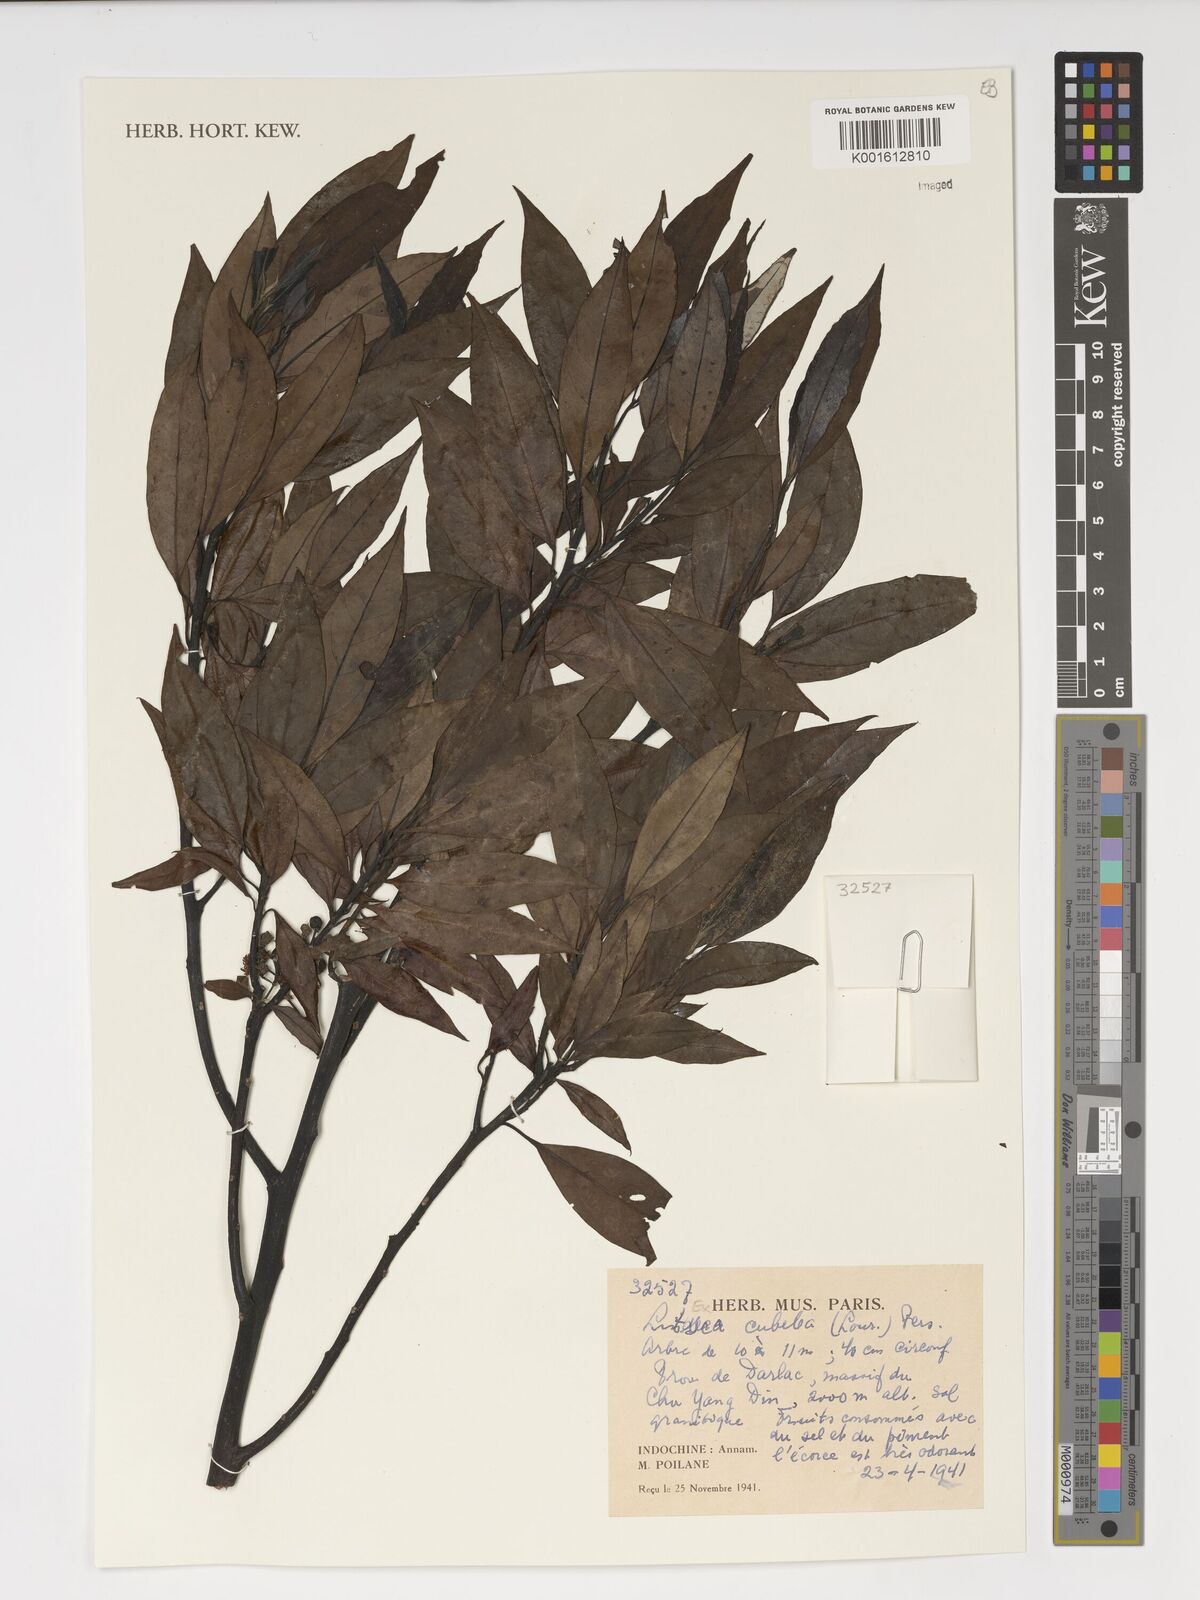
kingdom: Plantae
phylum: Tracheophyta
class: Magnoliopsida
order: Laurales
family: Lauraceae
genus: Litsea
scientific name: Litsea cubeba
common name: Mountain-pepper
